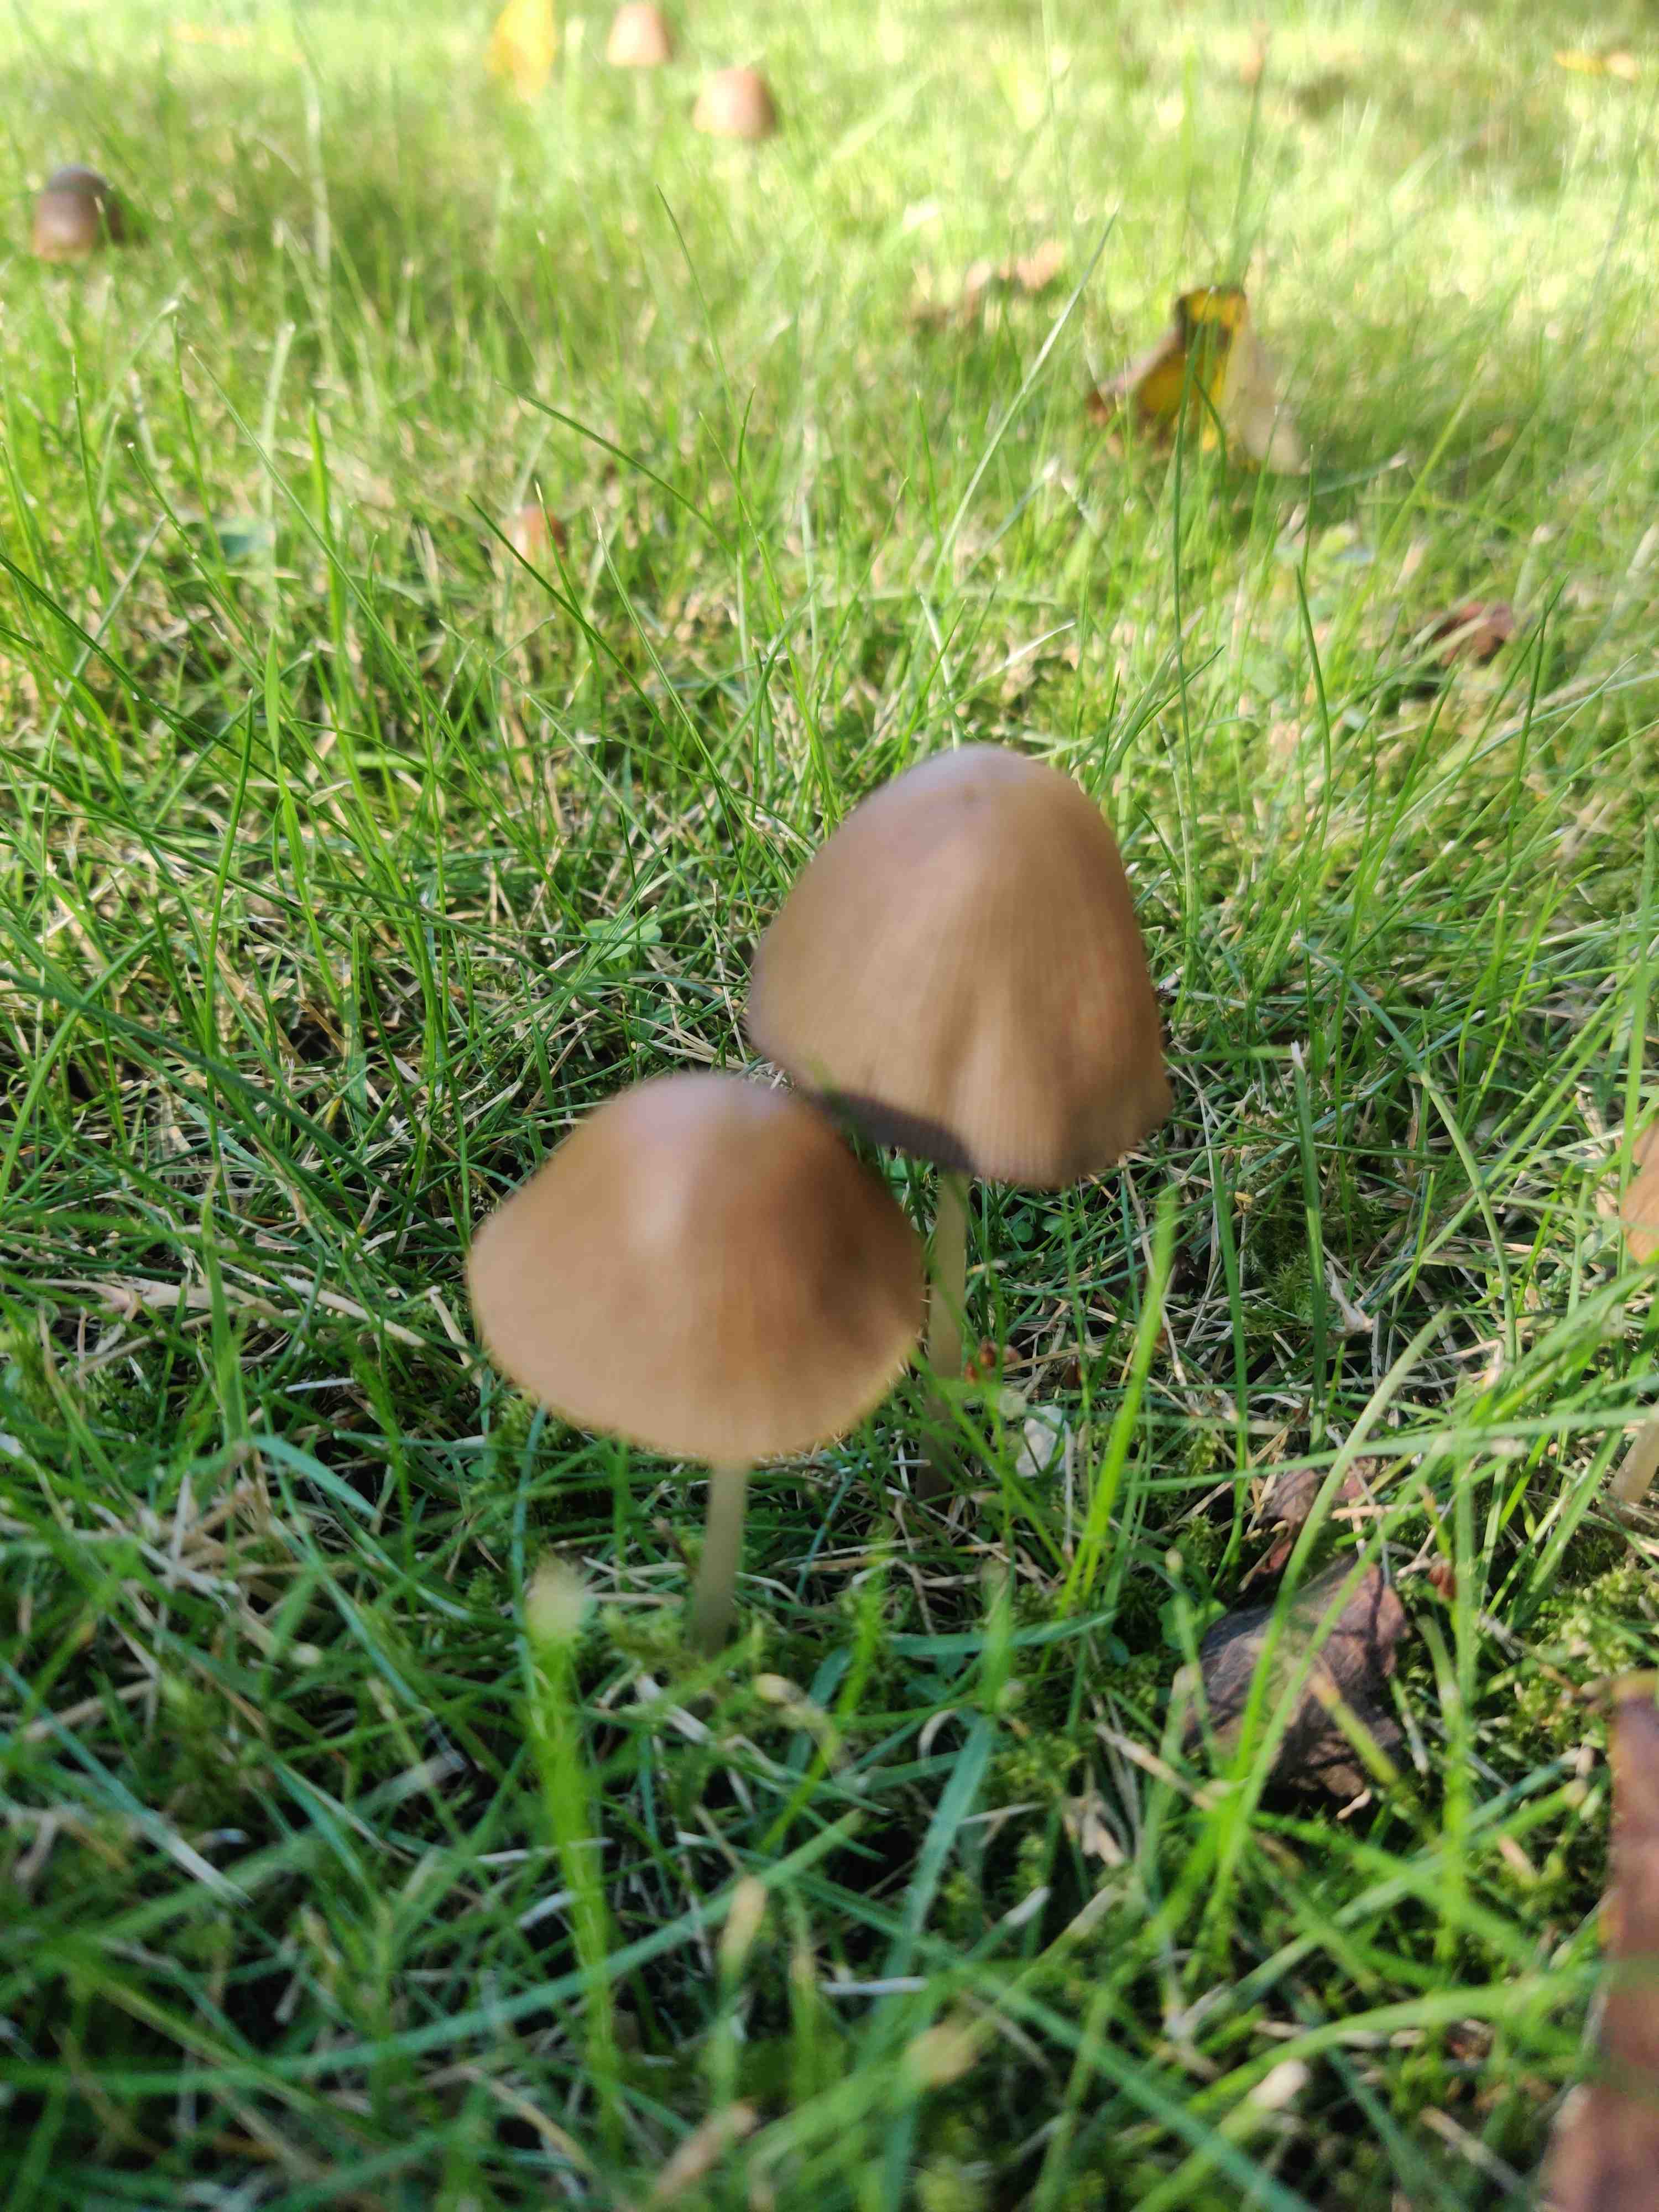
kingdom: Fungi
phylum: Basidiomycota
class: Agaricomycetes
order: Agaricales
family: Psathyrellaceae
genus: Parasola
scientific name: Parasola conopilea
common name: kegle-hjulhat
